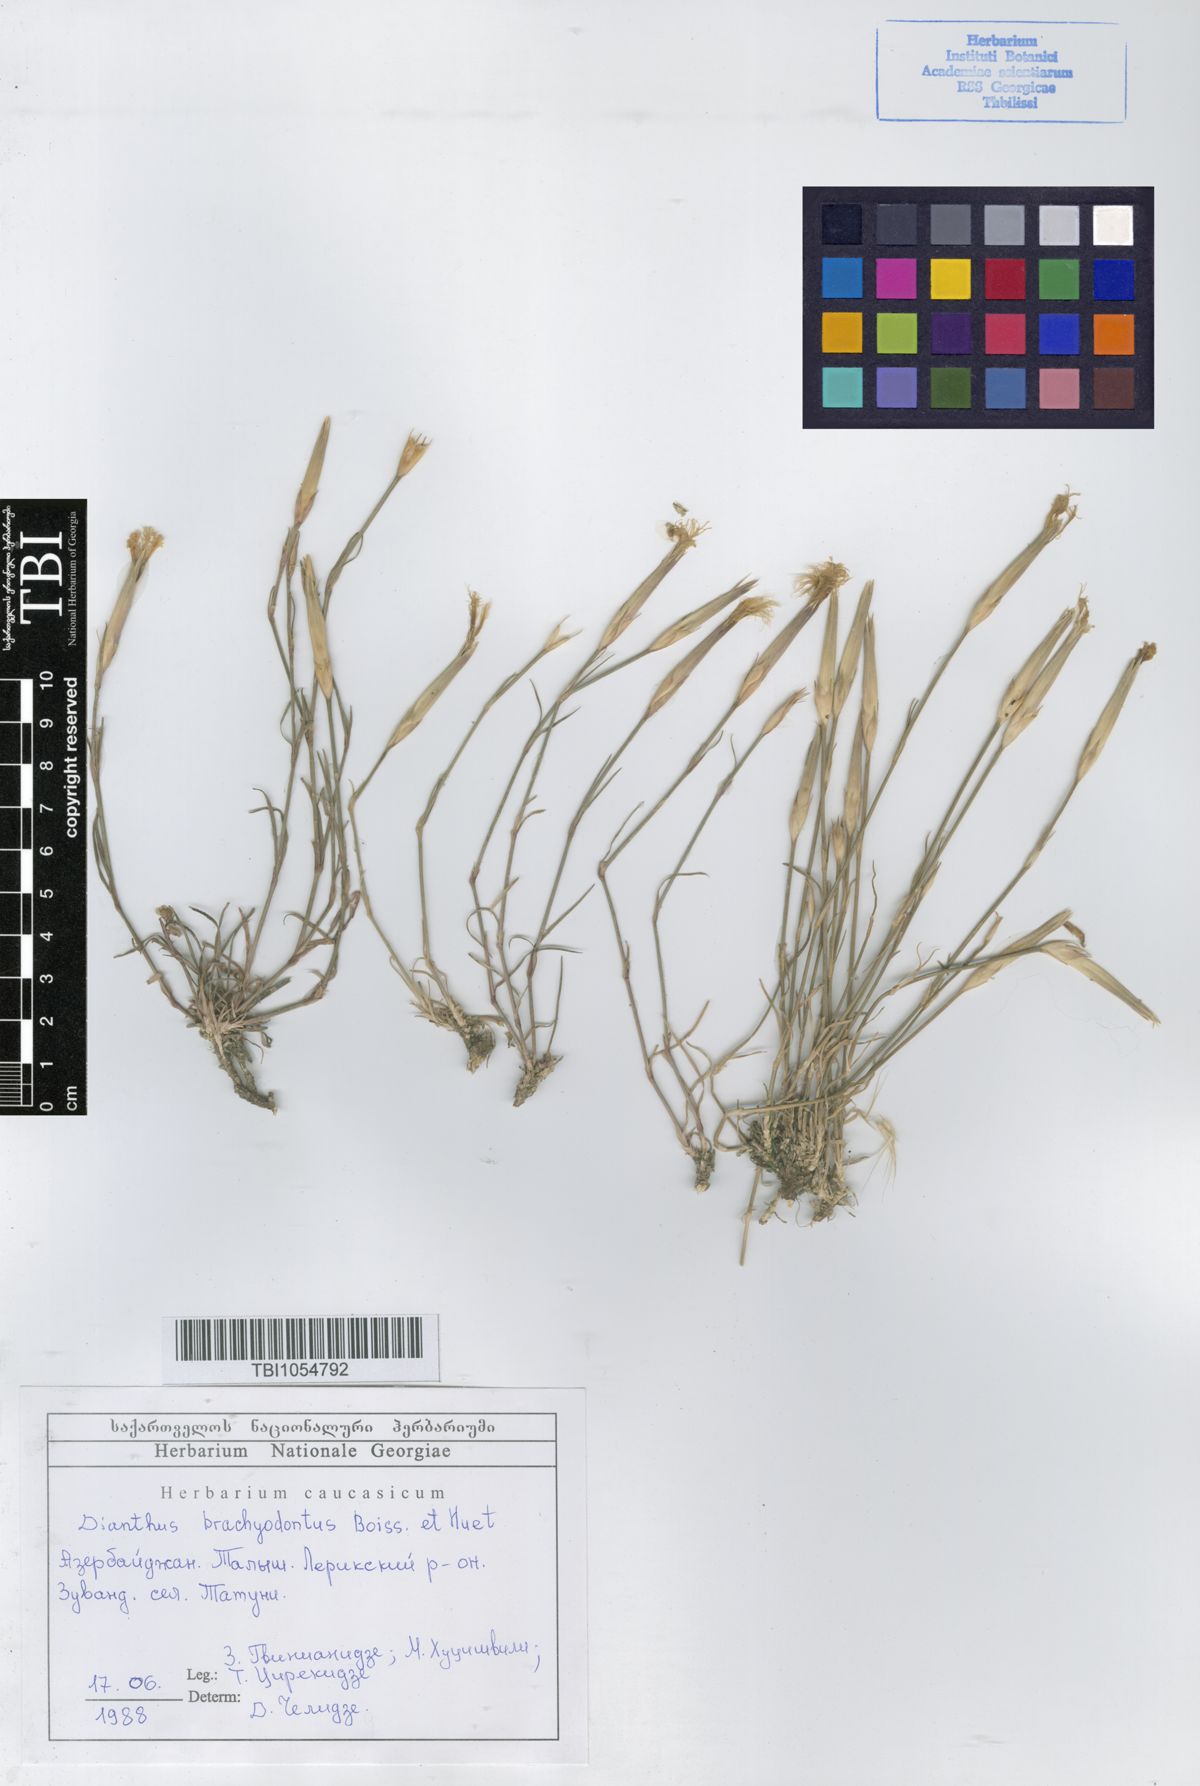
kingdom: Plantae
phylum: Tracheophyta
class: Magnoliopsida
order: Caryophyllales
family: Caryophyllaceae
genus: Dianthus
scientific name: Dianthus
